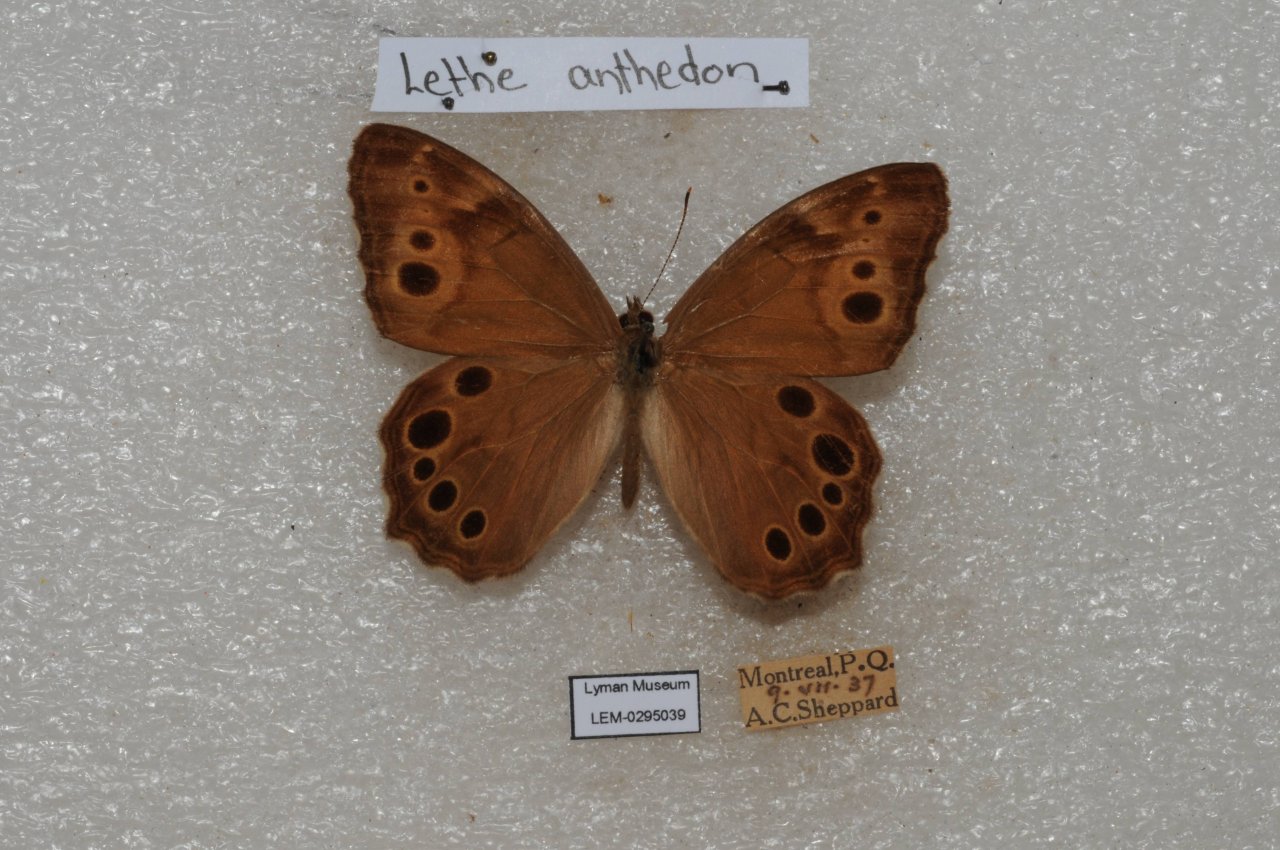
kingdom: Animalia
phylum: Arthropoda
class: Insecta
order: Lepidoptera
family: Nymphalidae
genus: Lethe
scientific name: Lethe anthedon
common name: Northern Pearly-Eye
